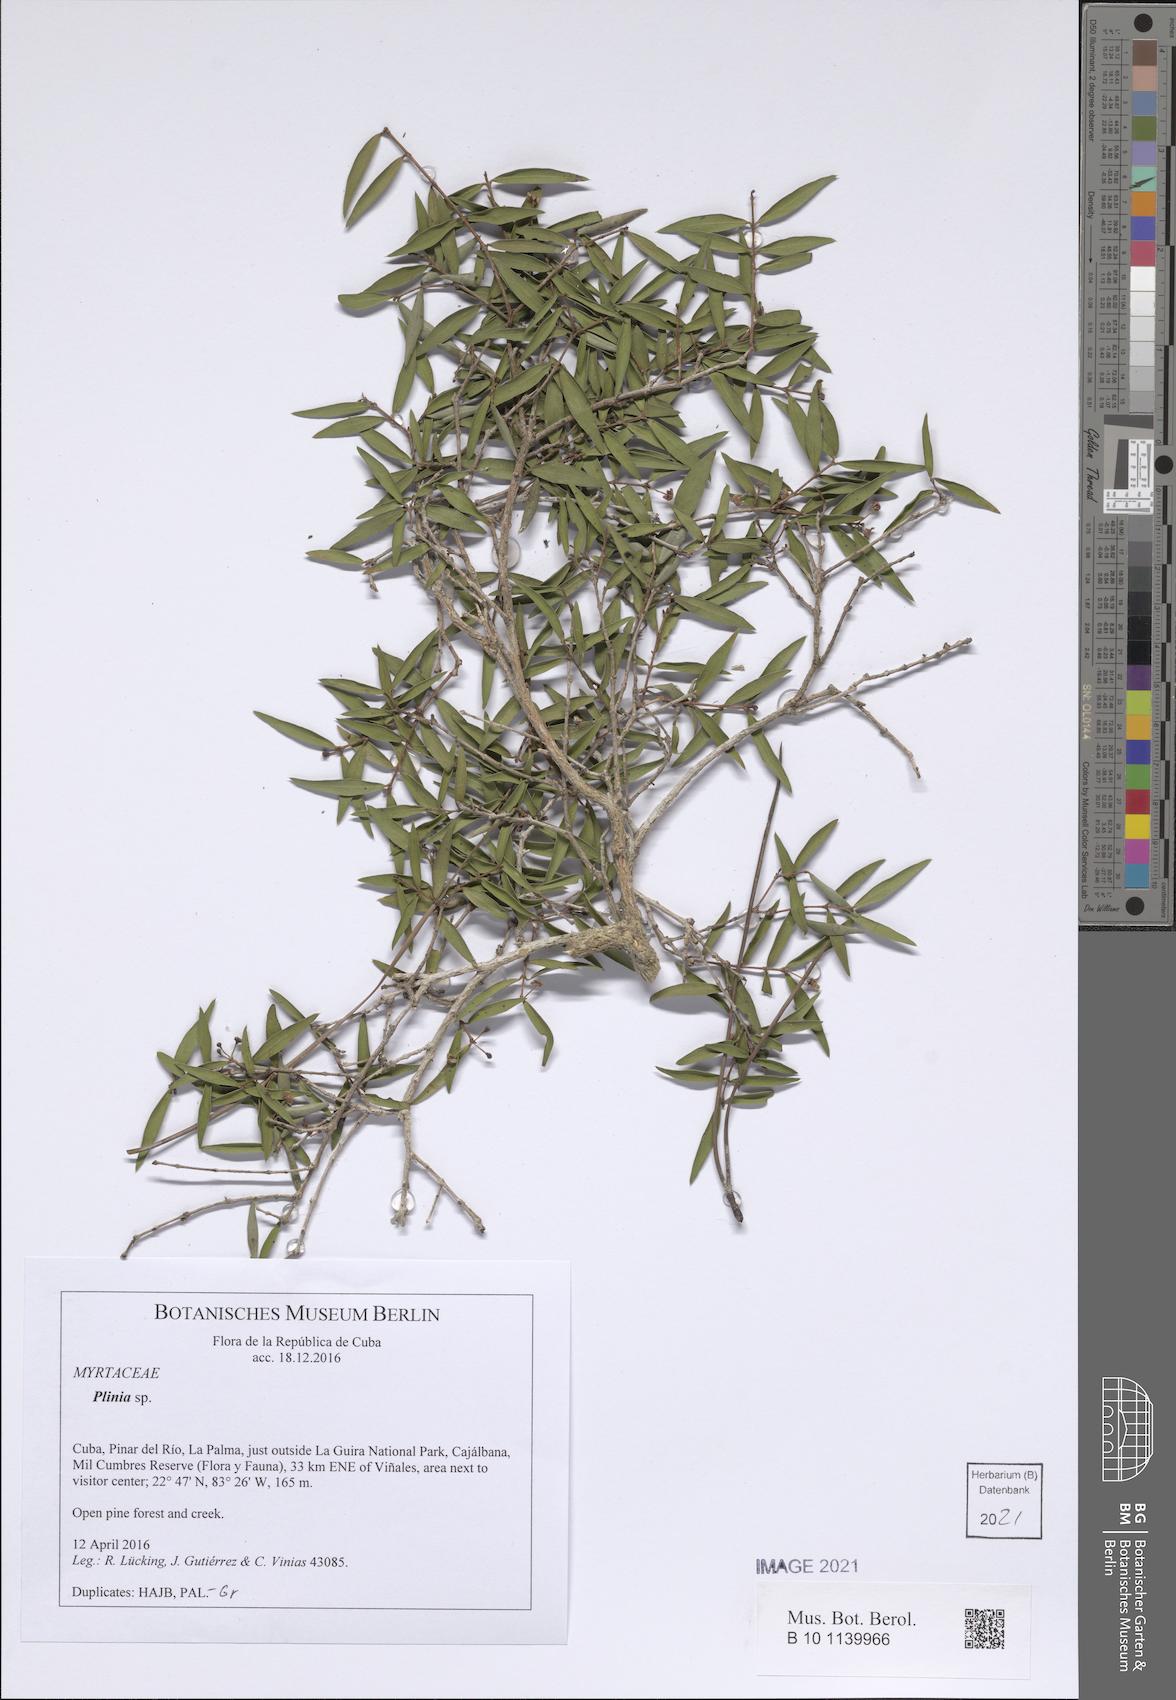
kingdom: Plantae
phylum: Tracheophyta
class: Magnoliopsida
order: Myrtales
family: Myrtaceae
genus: Eugenia
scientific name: Eugenia rigidifolia
